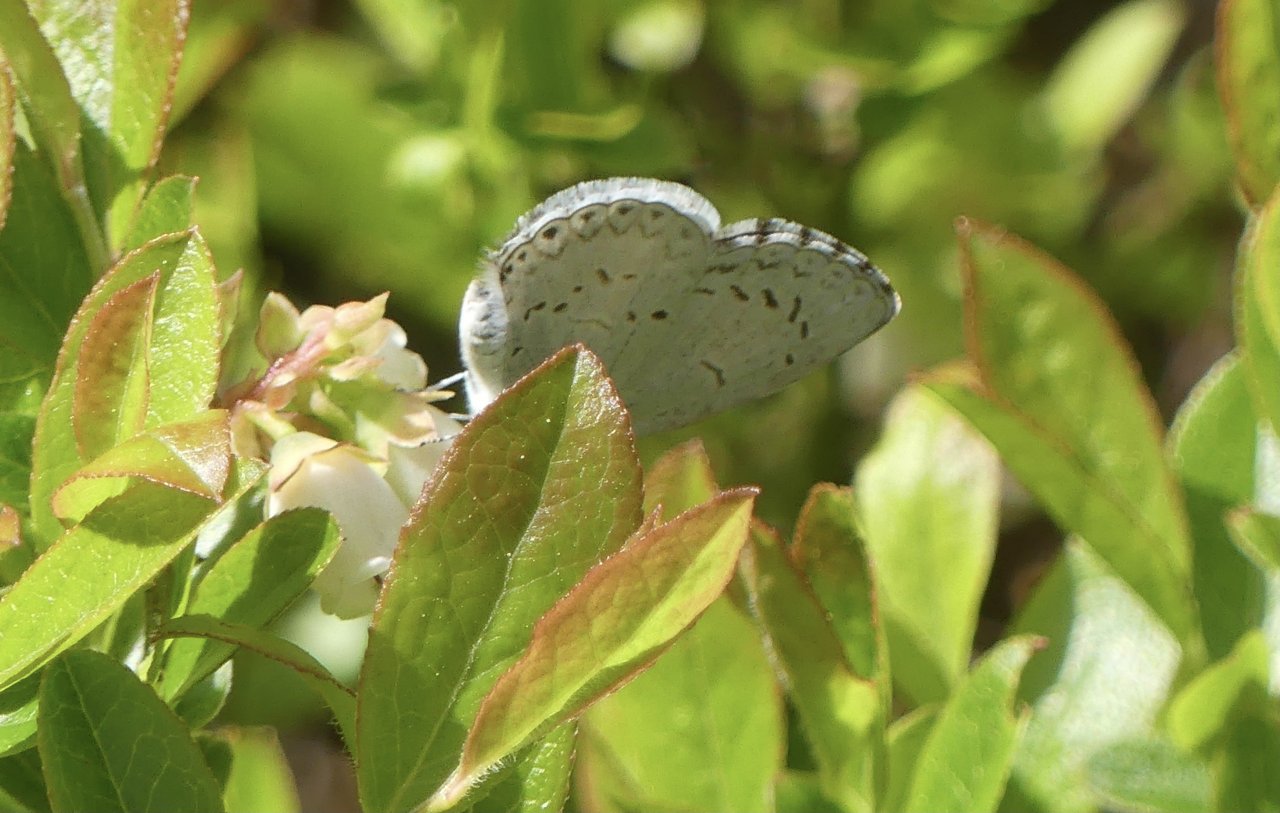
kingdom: Animalia
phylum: Arthropoda
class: Insecta
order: Lepidoptera
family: Lycaenidae
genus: Celastrina
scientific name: Celastrina serotina
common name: Cherry Gall Azure
